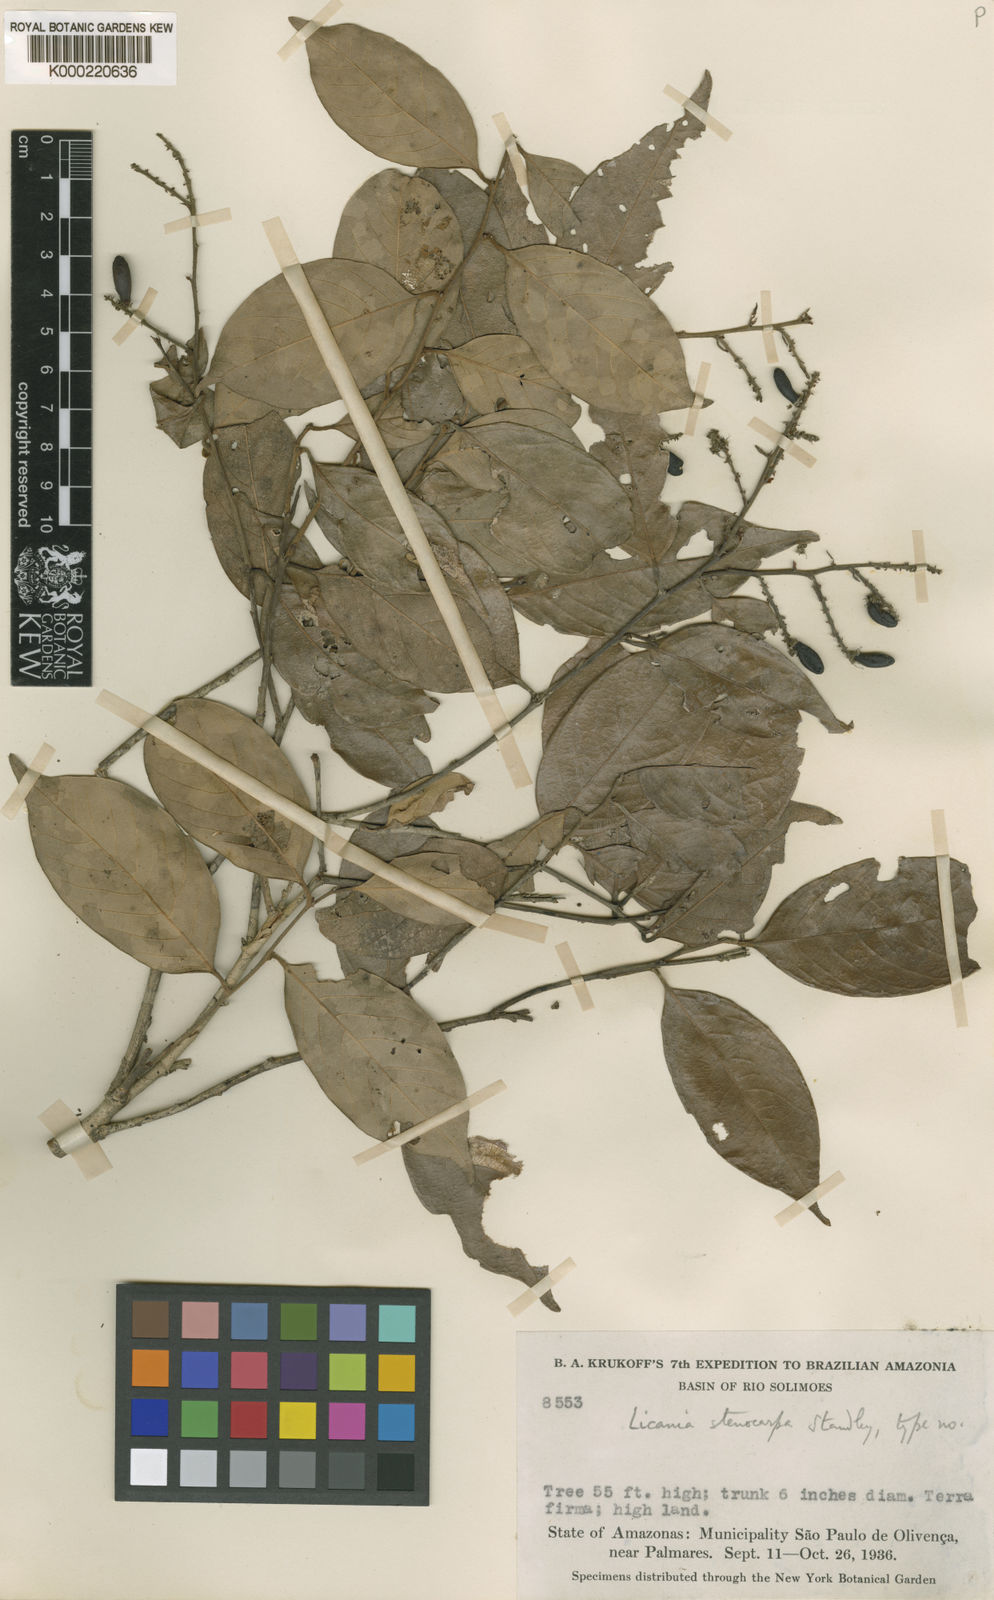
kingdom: Plantae
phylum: Tracheophyta
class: Magnoliopsida
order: Malpighiales
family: Chrysobalanaceae
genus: Licania
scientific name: Licania octandra
